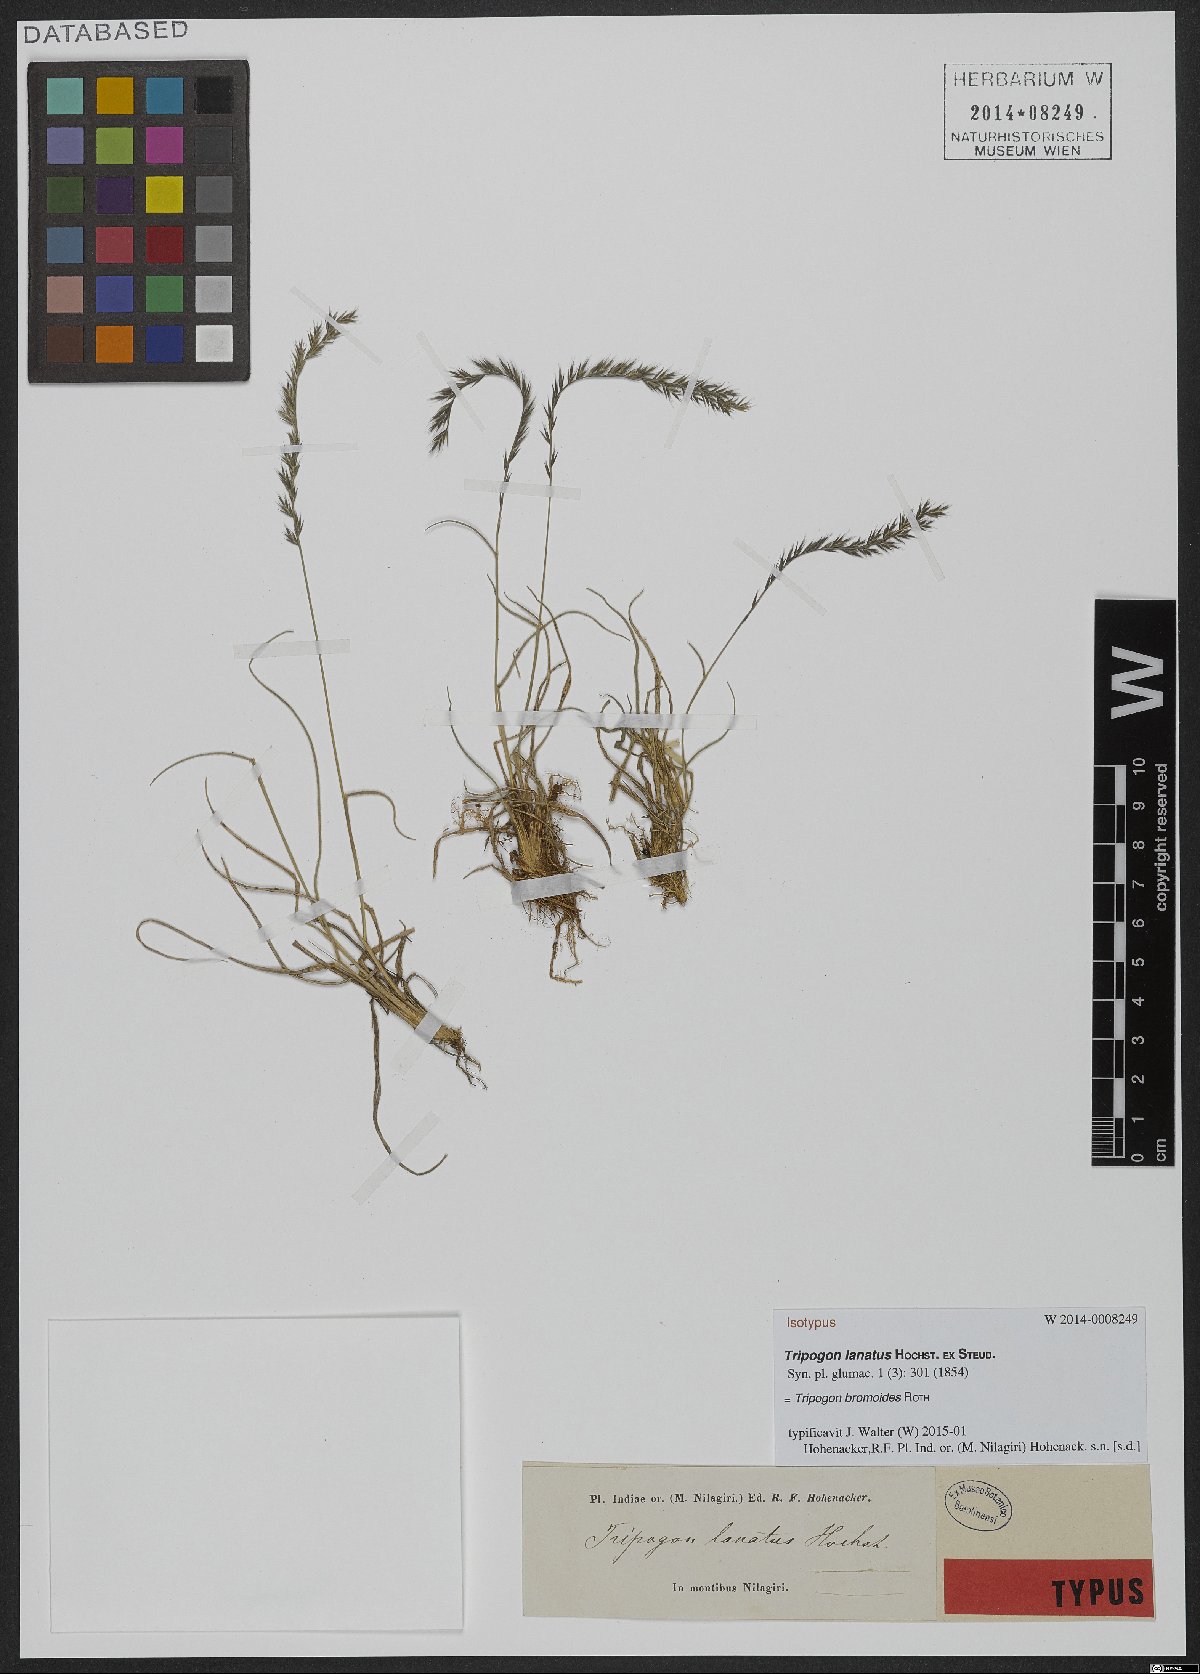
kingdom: Plantae
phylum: Tracheophyta
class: Liliopsida
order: Poales
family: Poaceae
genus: Tripogon
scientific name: Tripogon bromoides
